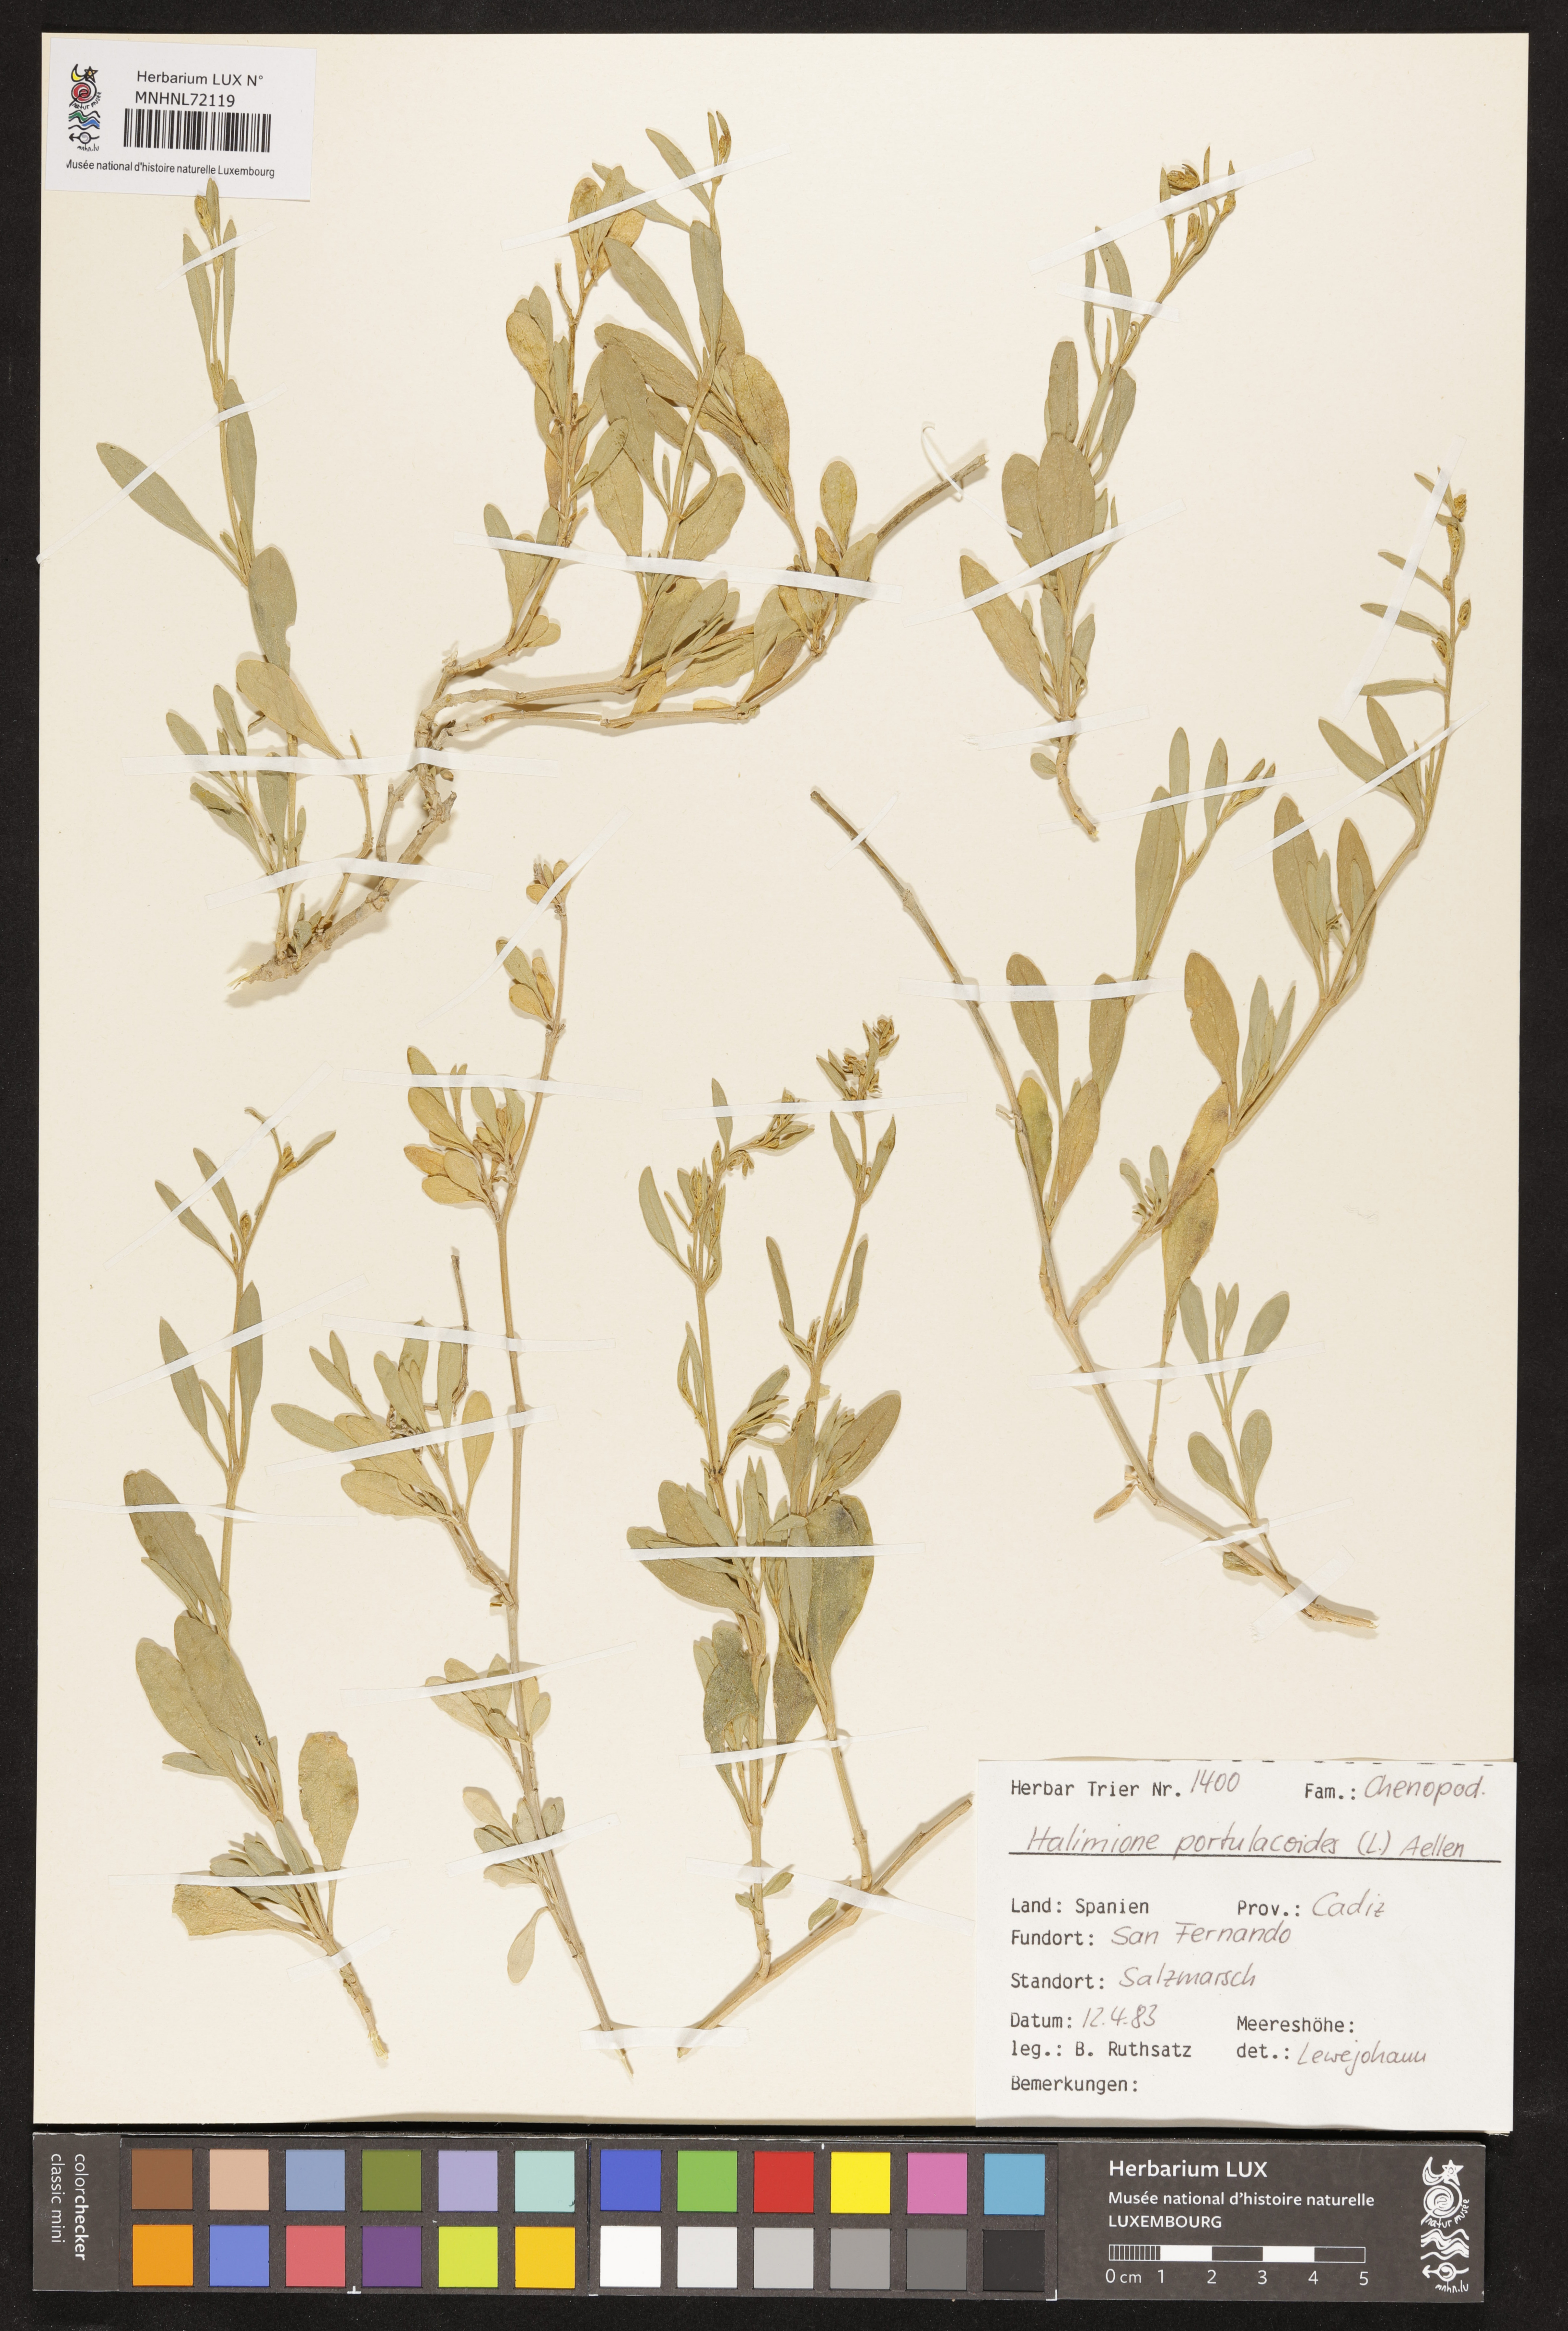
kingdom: Plantae
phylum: Tracheophyta
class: Magnoliopsida
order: Caryophyllales
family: Amaranthaceae
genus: Halimione
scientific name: Halimione portulacoides
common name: Sea-purslane
